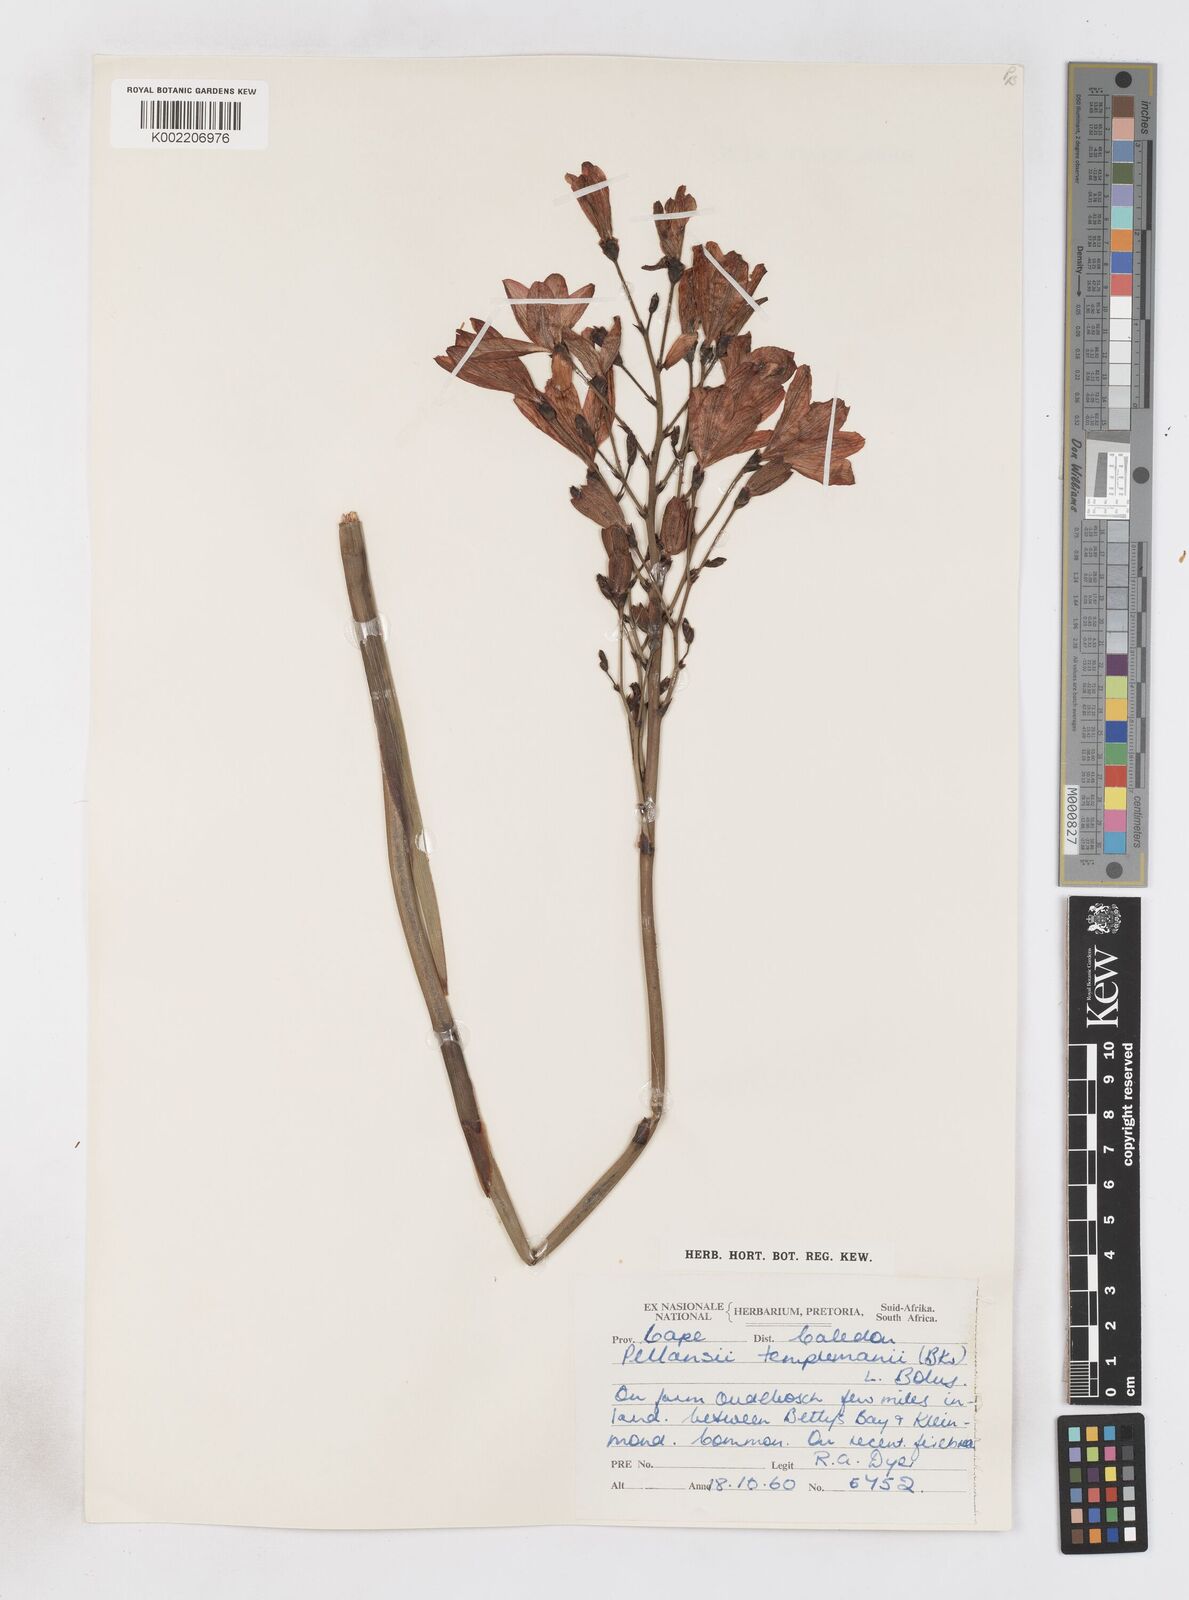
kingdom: Plantae
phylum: Tracheophyta
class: Liliopsida
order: Asparagales
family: Iridaceae
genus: Pillansia
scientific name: Pillansia templemannii
